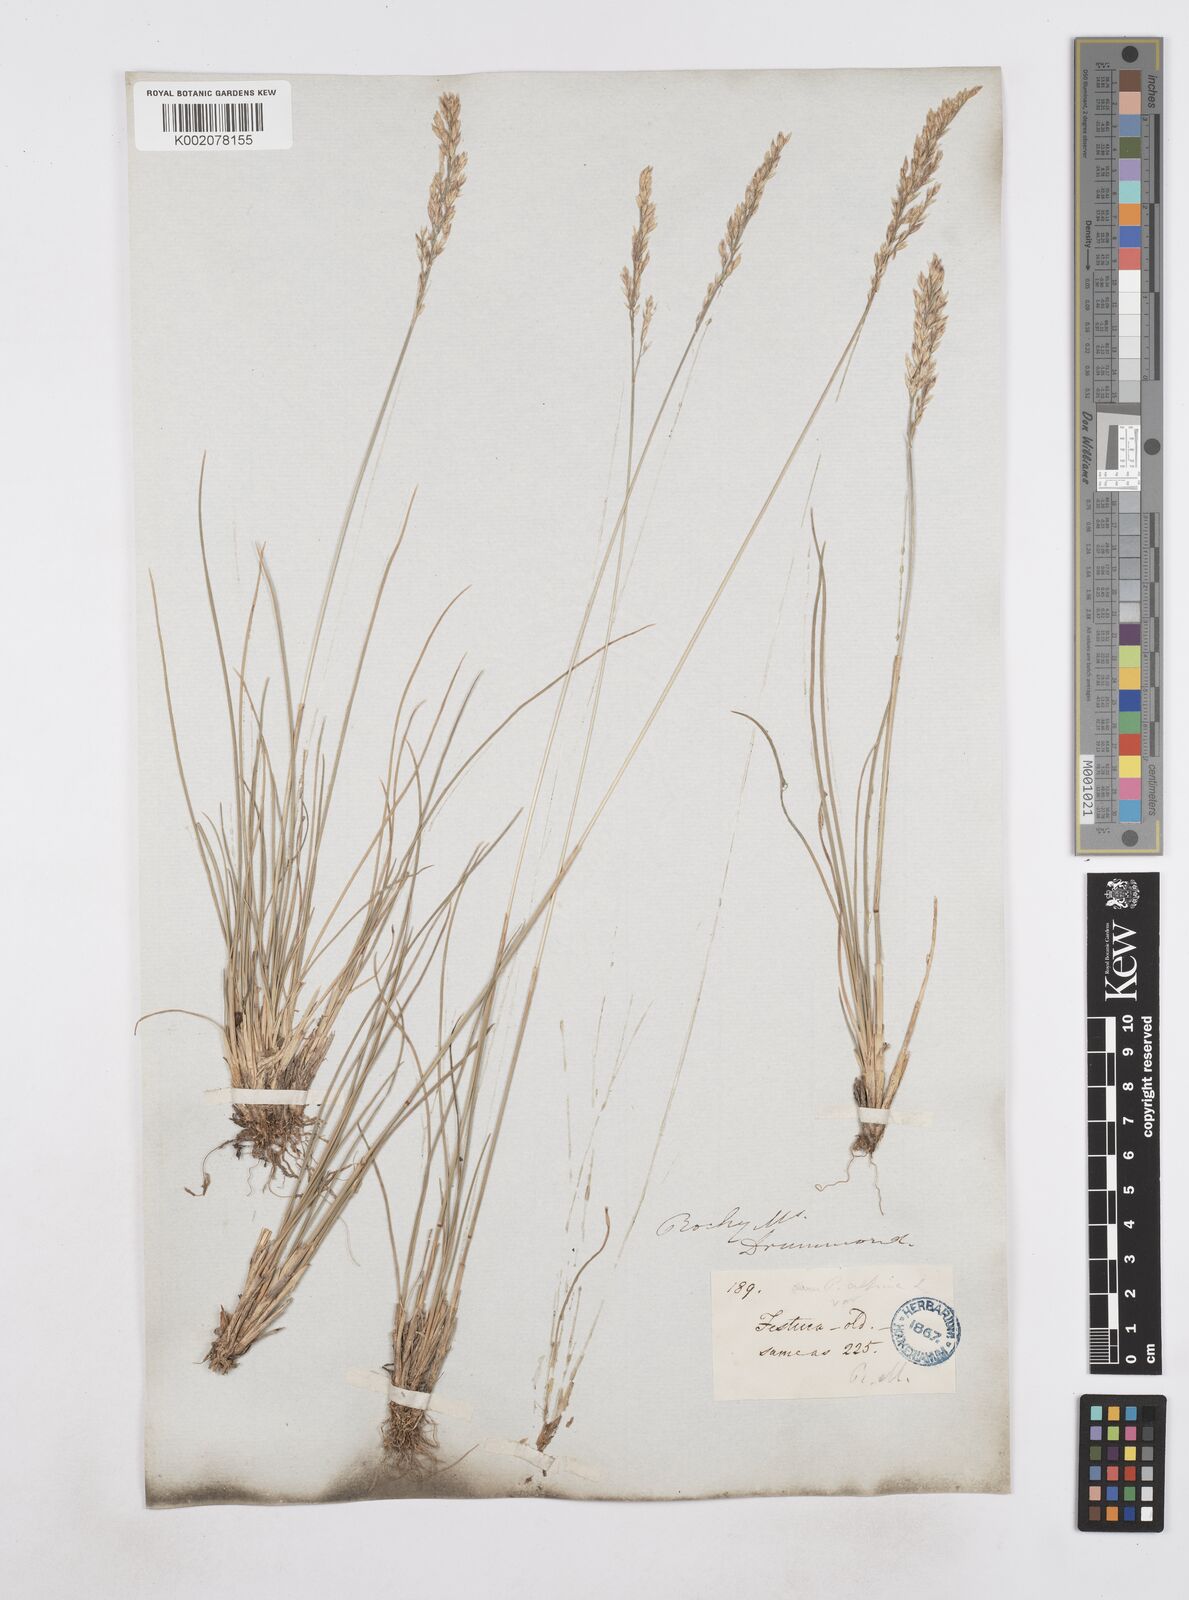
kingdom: Plantae
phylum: Tracheophyta
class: Liliopsida
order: Poales
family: Poaceae
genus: Poa
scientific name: Poa
